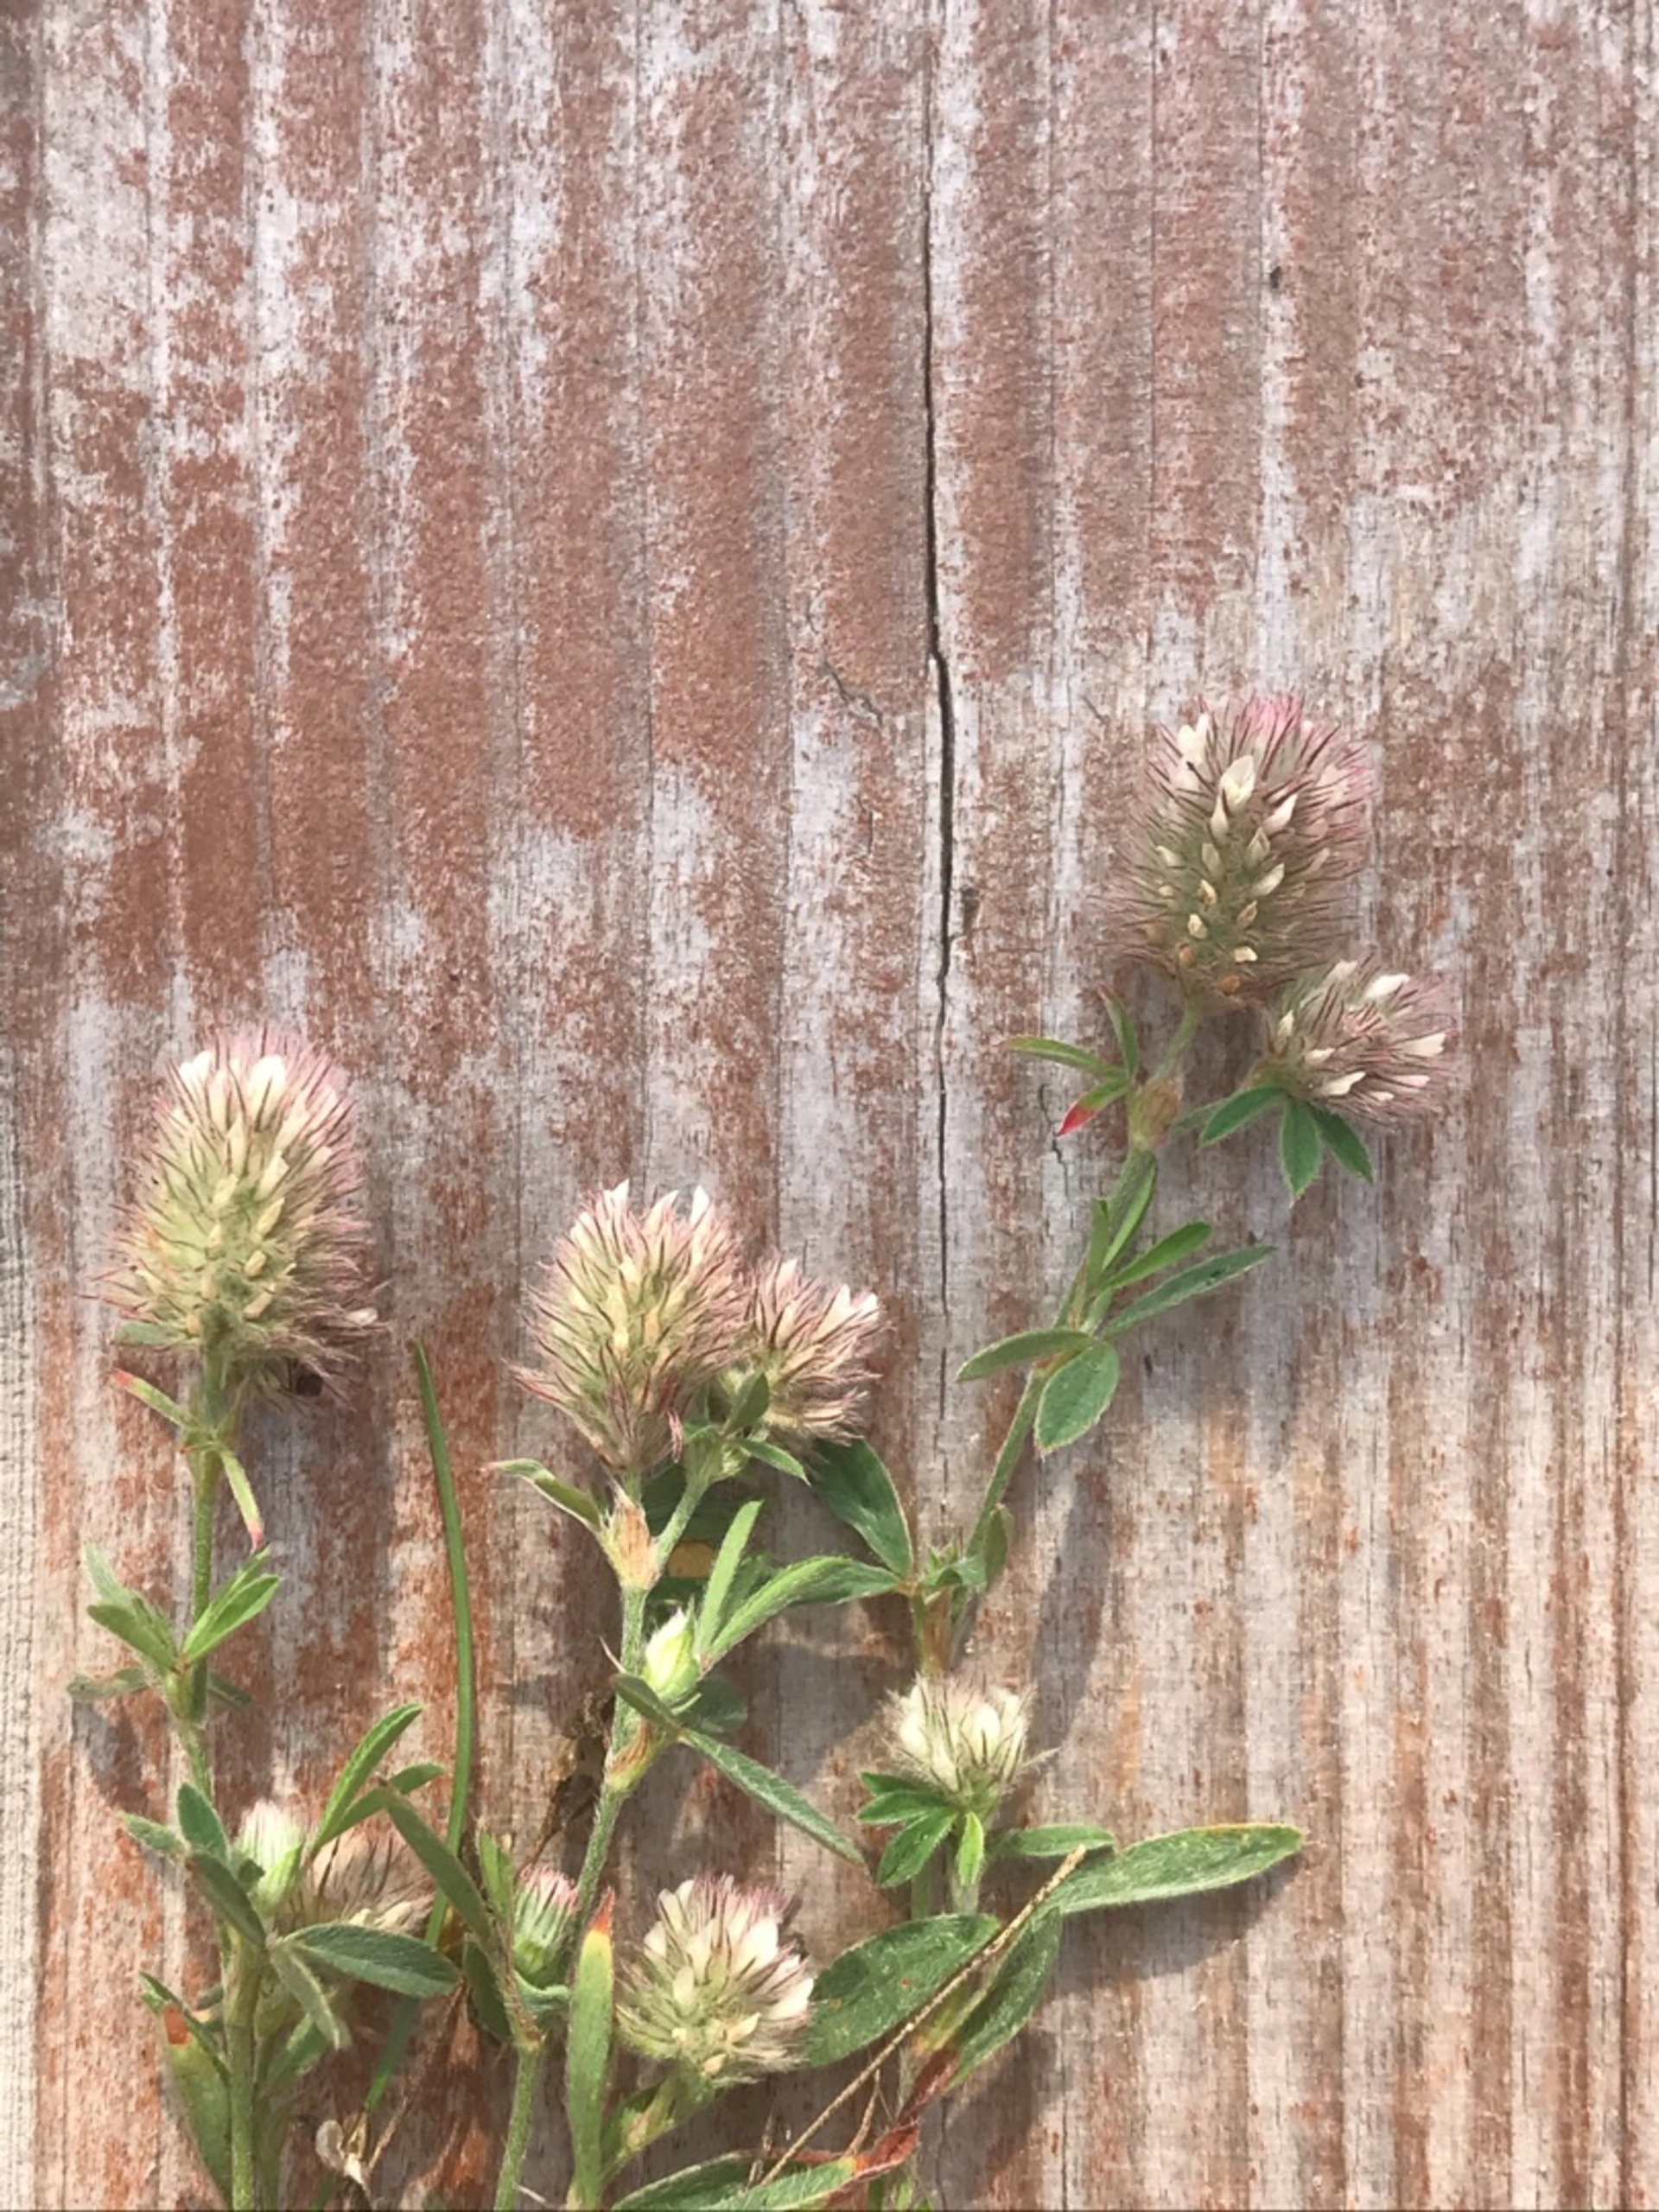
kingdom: Plantae
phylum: Tracheophyta
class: Magnoliopsida
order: Fabales
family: Fabaceae
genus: Trifolium
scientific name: Trifolium arvense
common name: Hare-kløver
